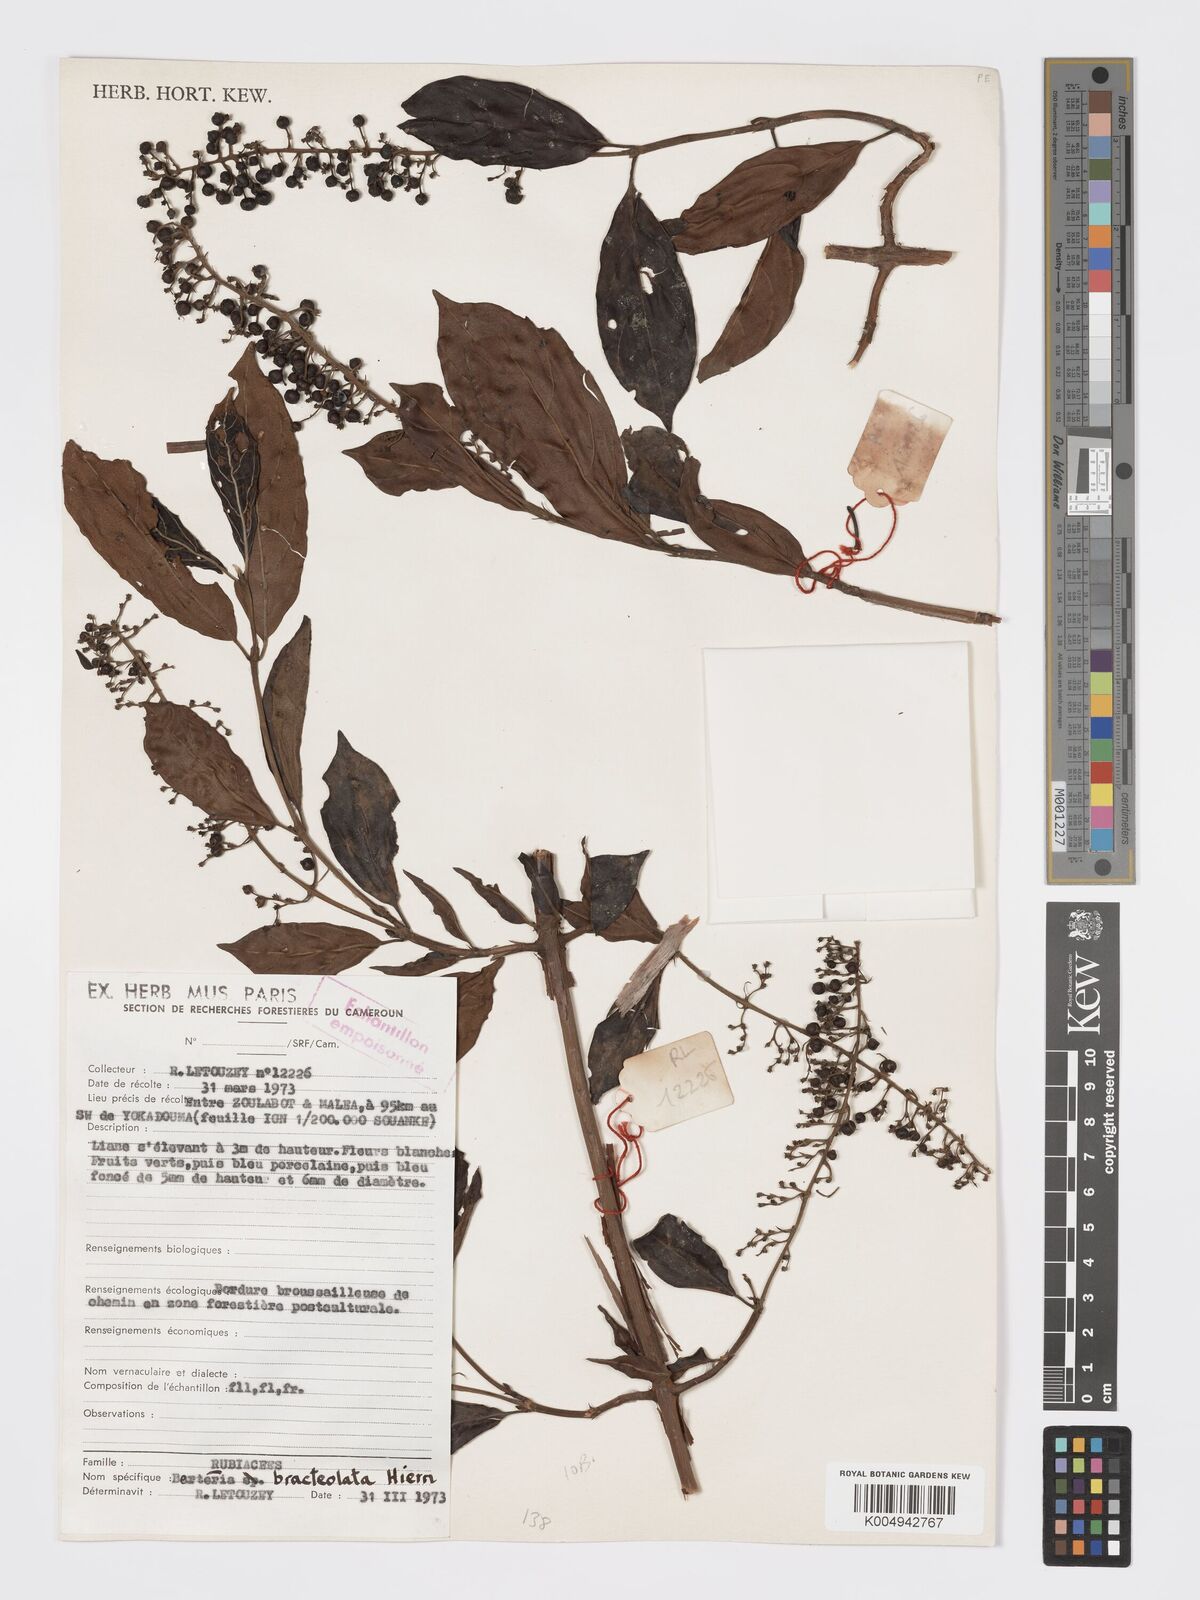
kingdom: Plantae
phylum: Tracheophyta
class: Magnoliopsida
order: Gentianales
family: Rubiaceae
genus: Bertiera
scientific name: Bertiera bracteolata
